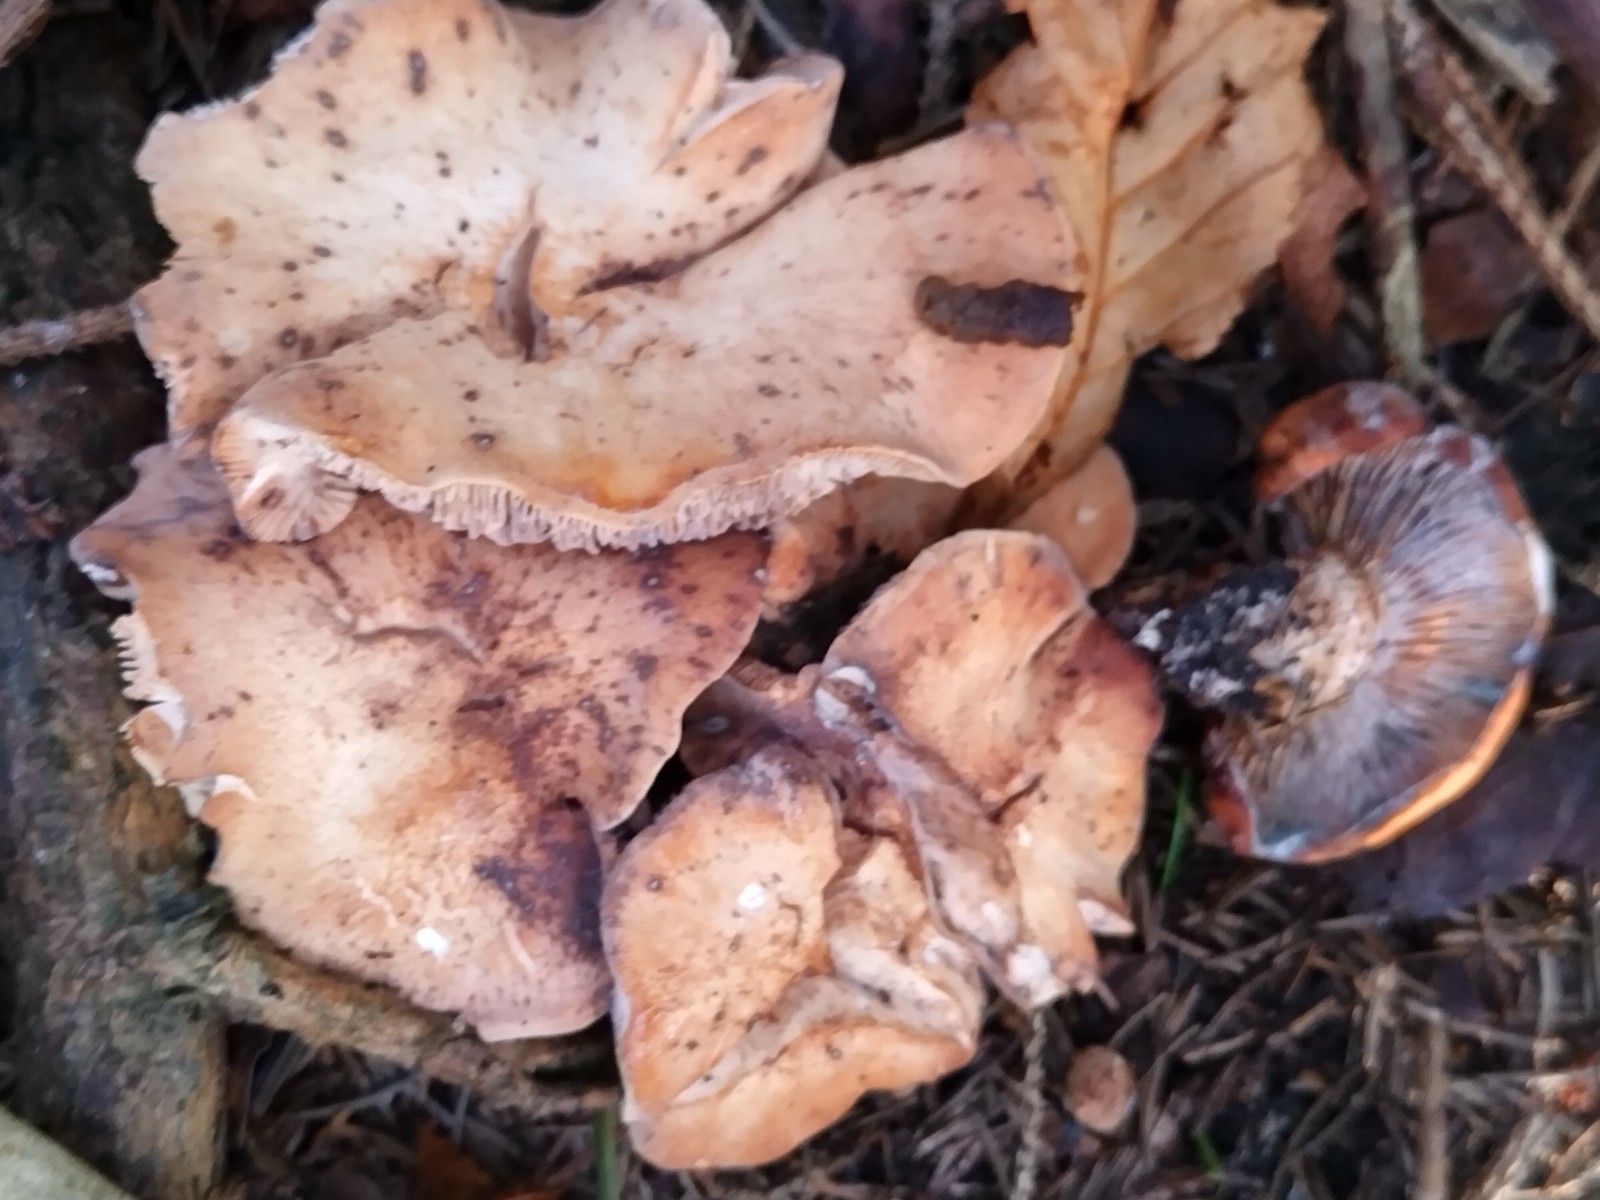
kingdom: Fungi
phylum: Basidiomycota
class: Agaricomycetes
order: Agaricales
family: Entolomataceae
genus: Clitopilus
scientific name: Clitopilus geminus
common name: kødfarvet troldhat
